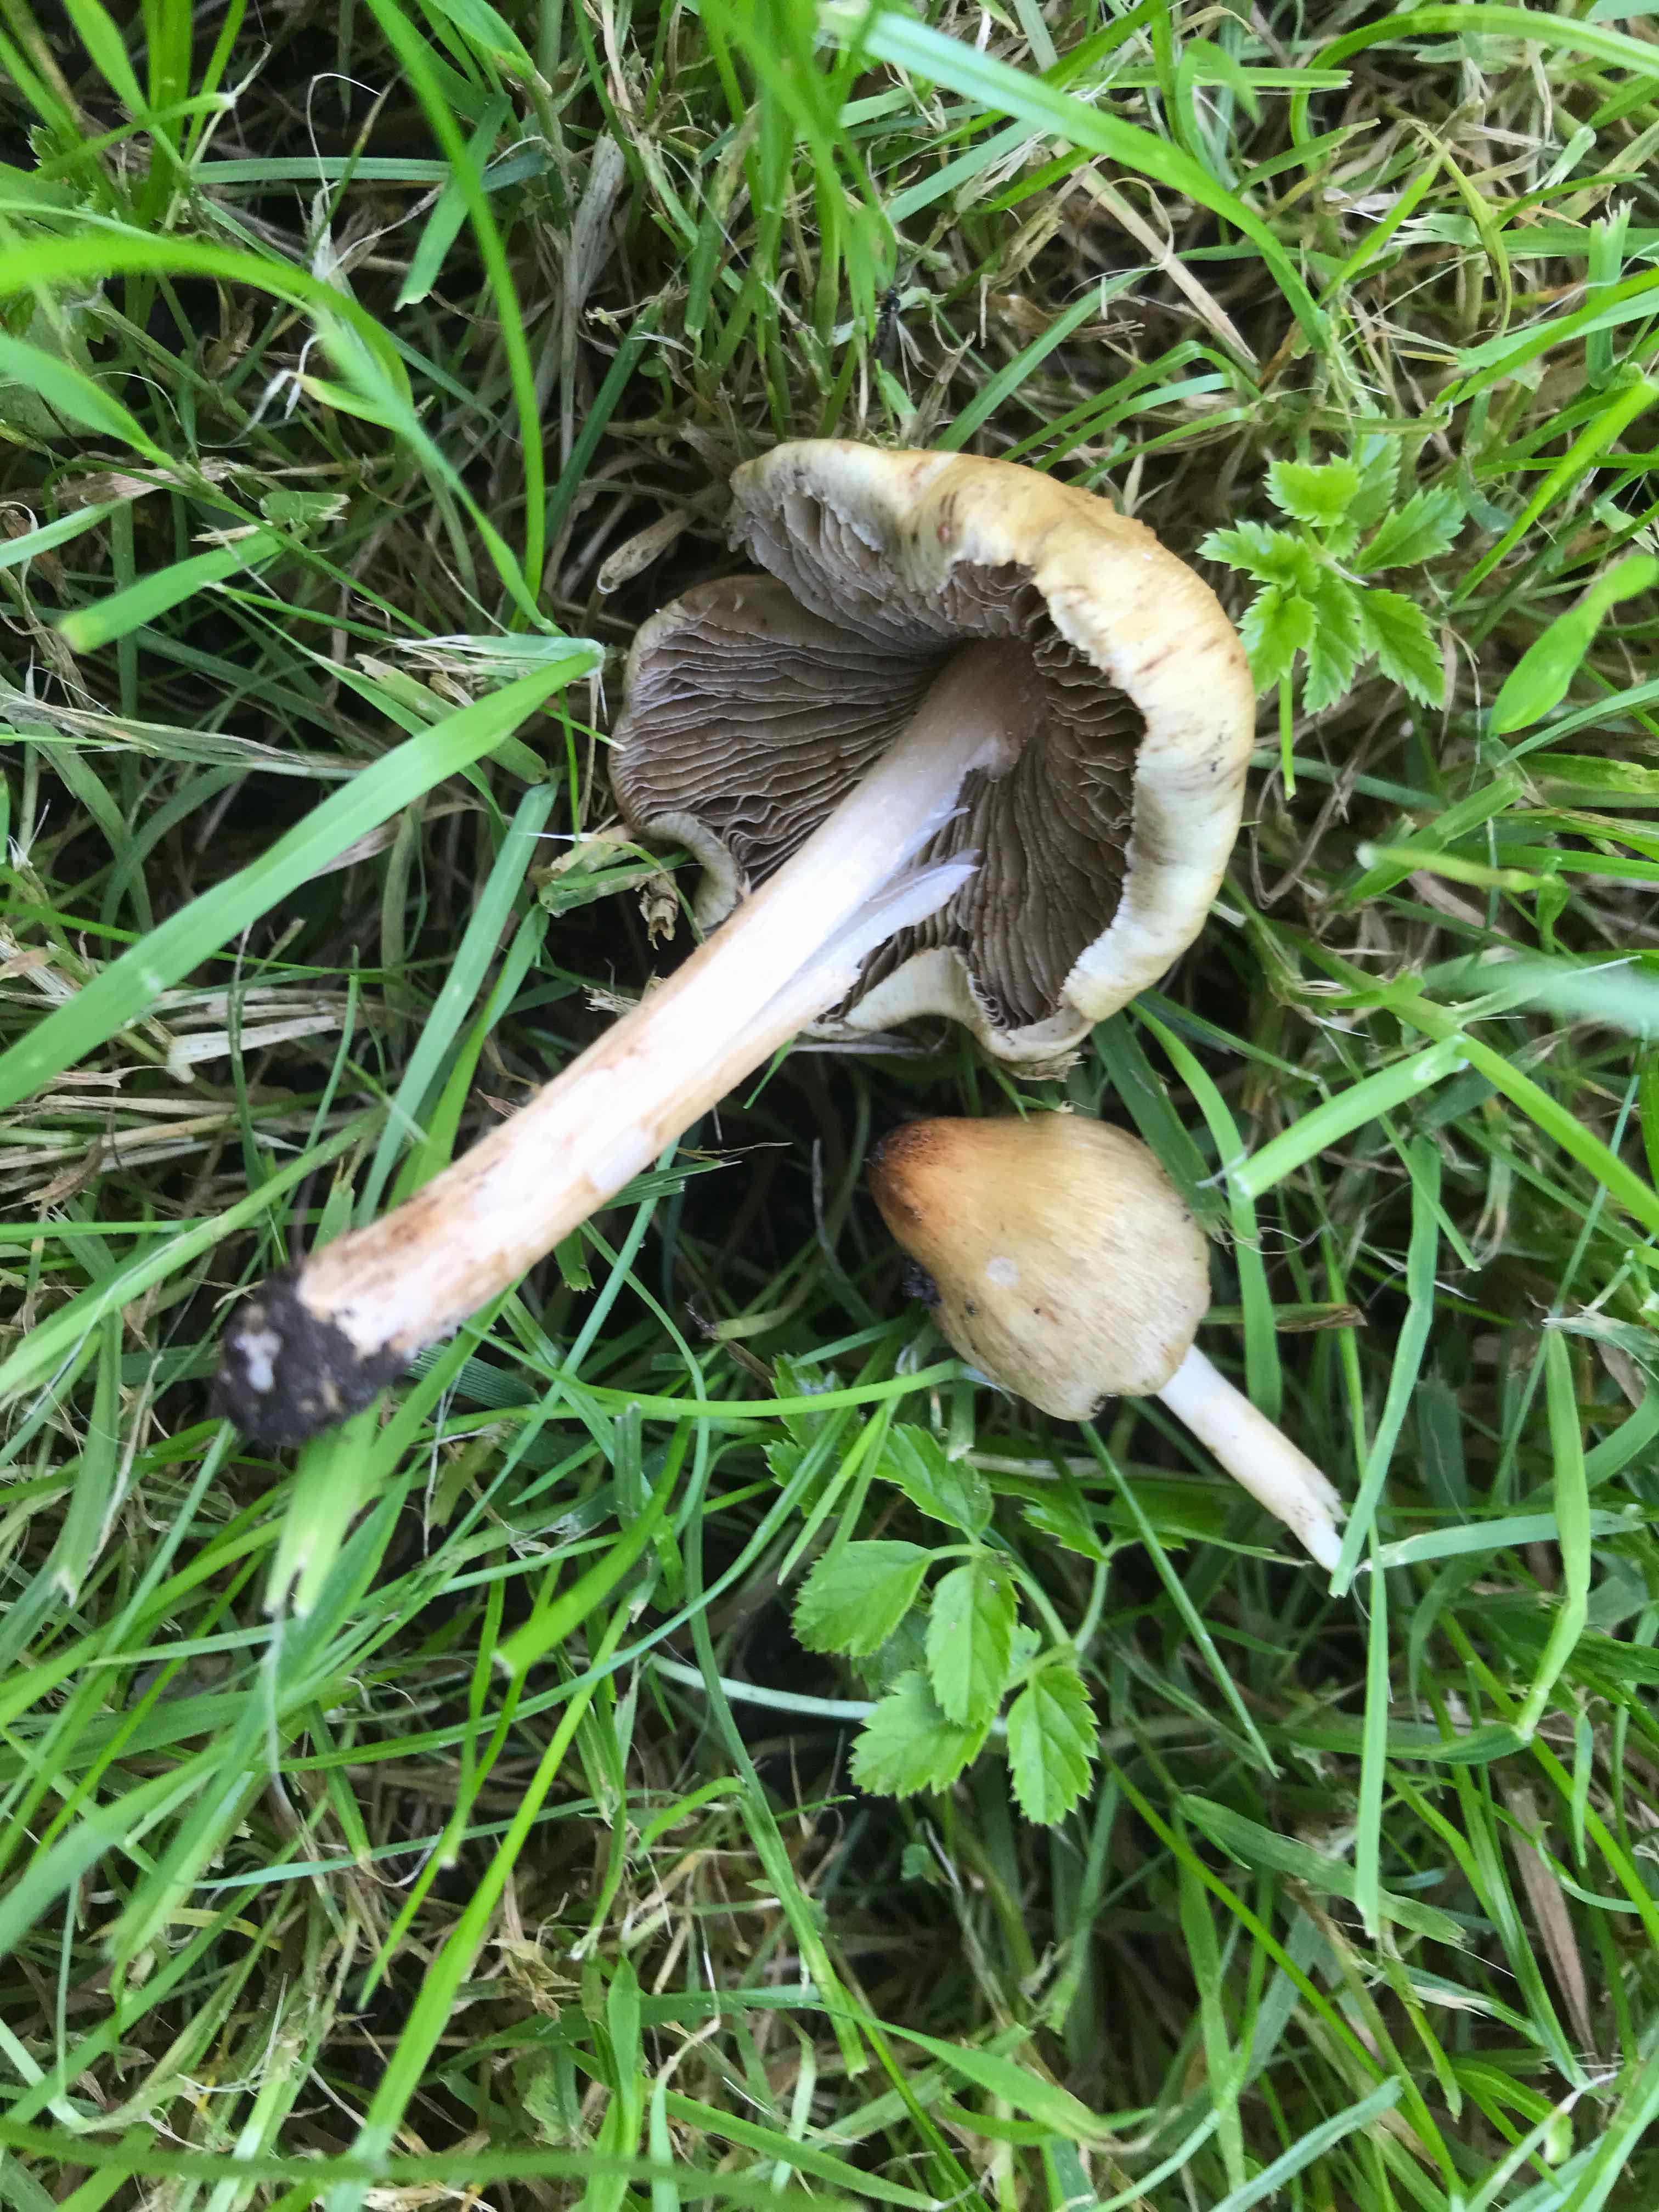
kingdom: Fungi
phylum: Basidiomycota
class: Agaricomycetes
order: Agaricales
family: Psathyrellaceae
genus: Lacrymaria
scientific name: Lacrymaria lacrymabunda
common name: grædende mørkhat
